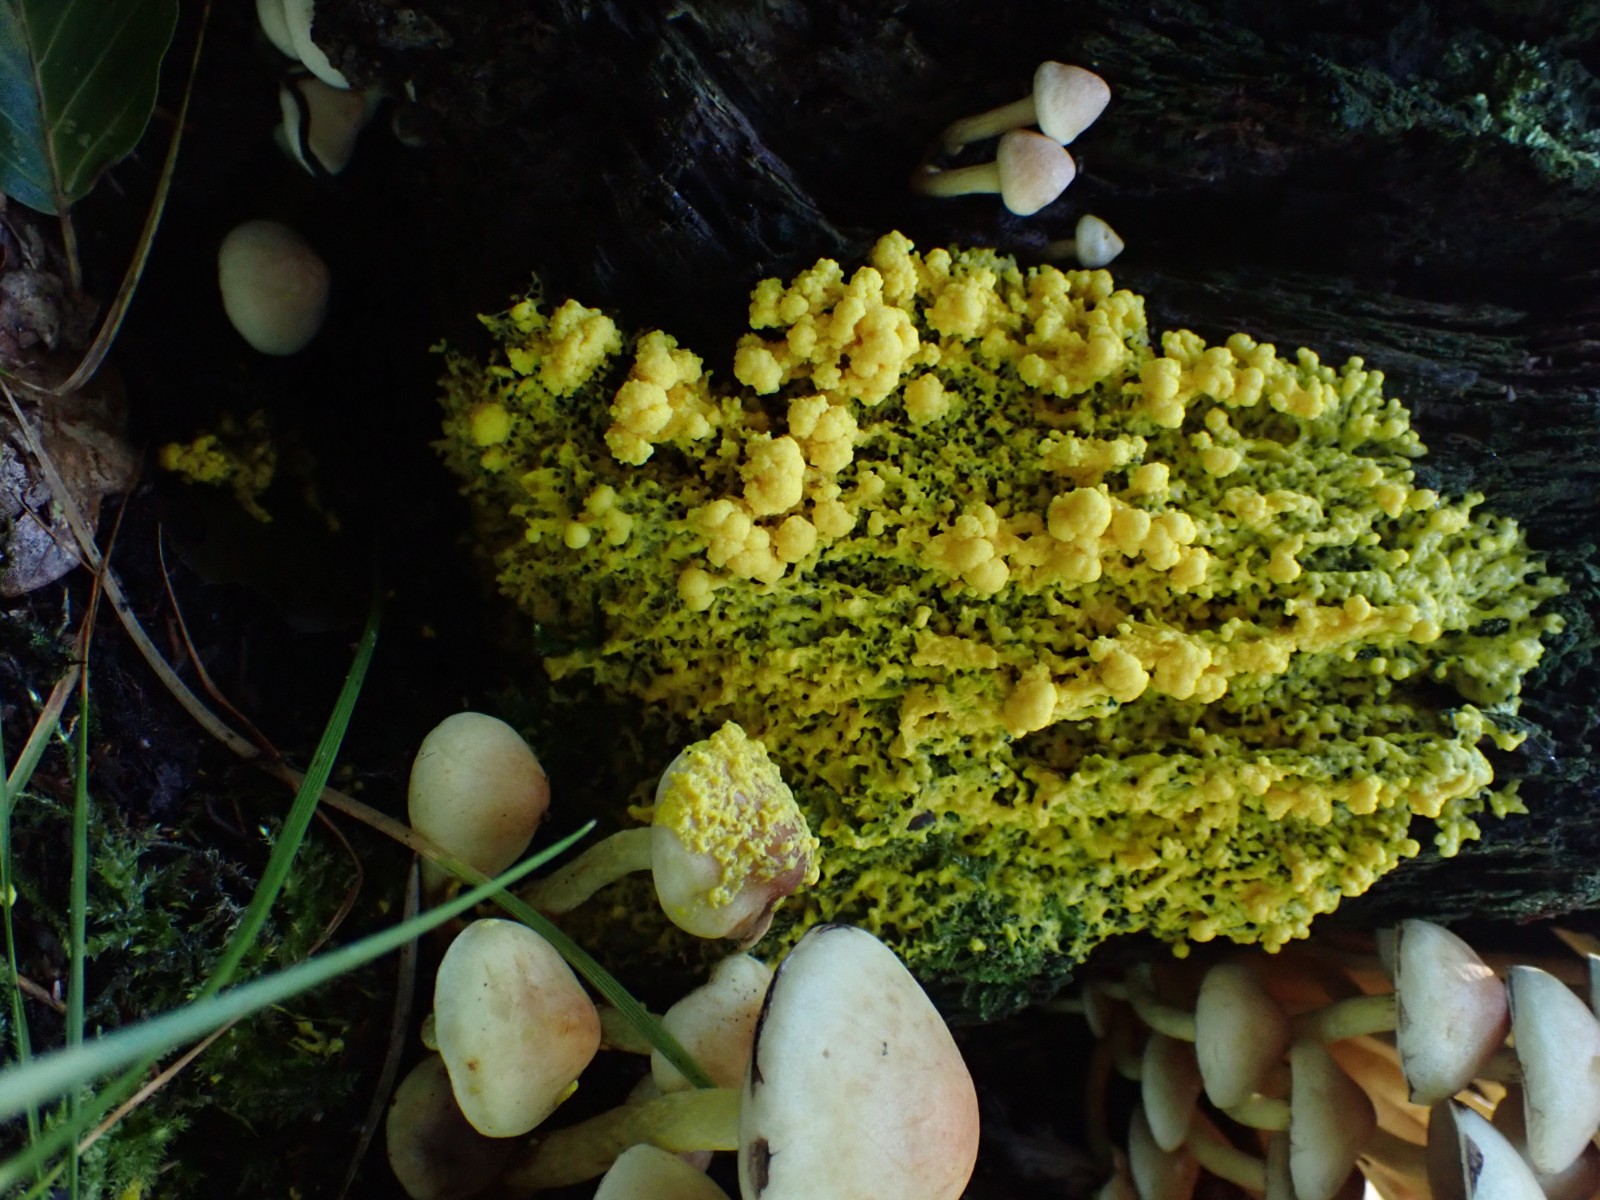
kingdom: Protozoa
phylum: Mycetozoa
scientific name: Mycetozoa
